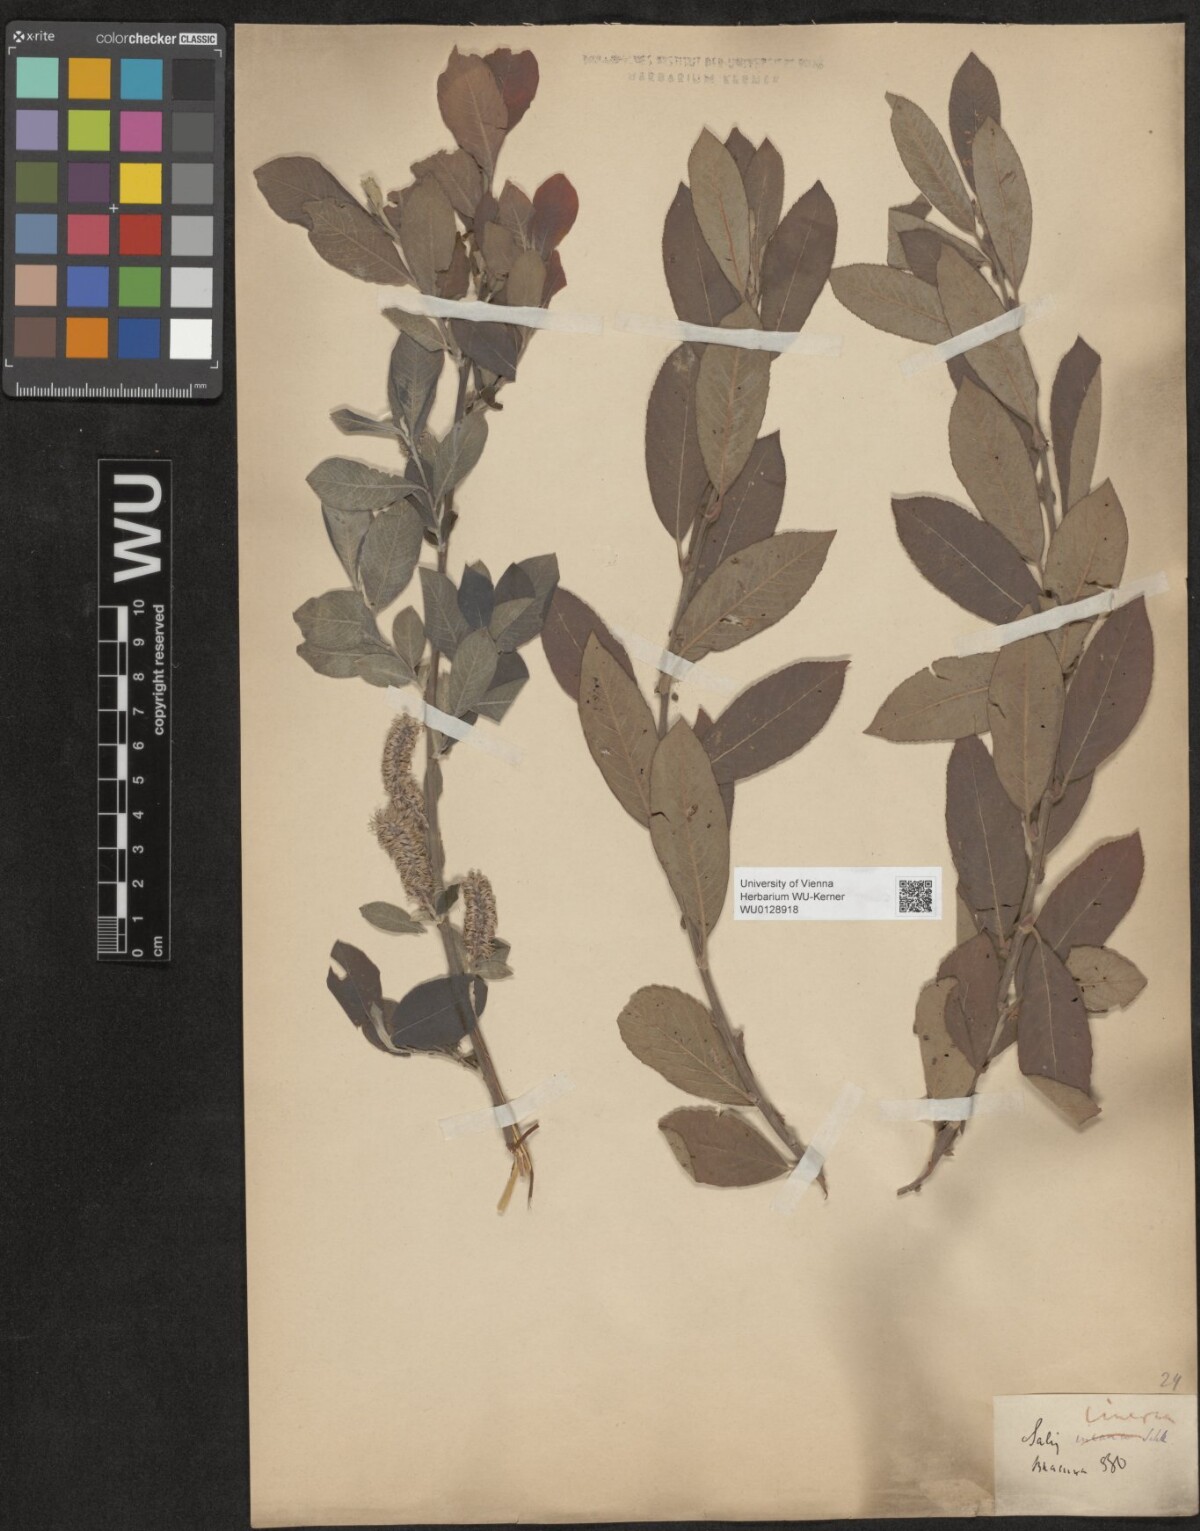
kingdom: Plantae
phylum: Tracheophyta
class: Magnoliopsida
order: Malpighiales
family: Salicaceae
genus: Salix
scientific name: Salix cinerea
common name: Common sallow
